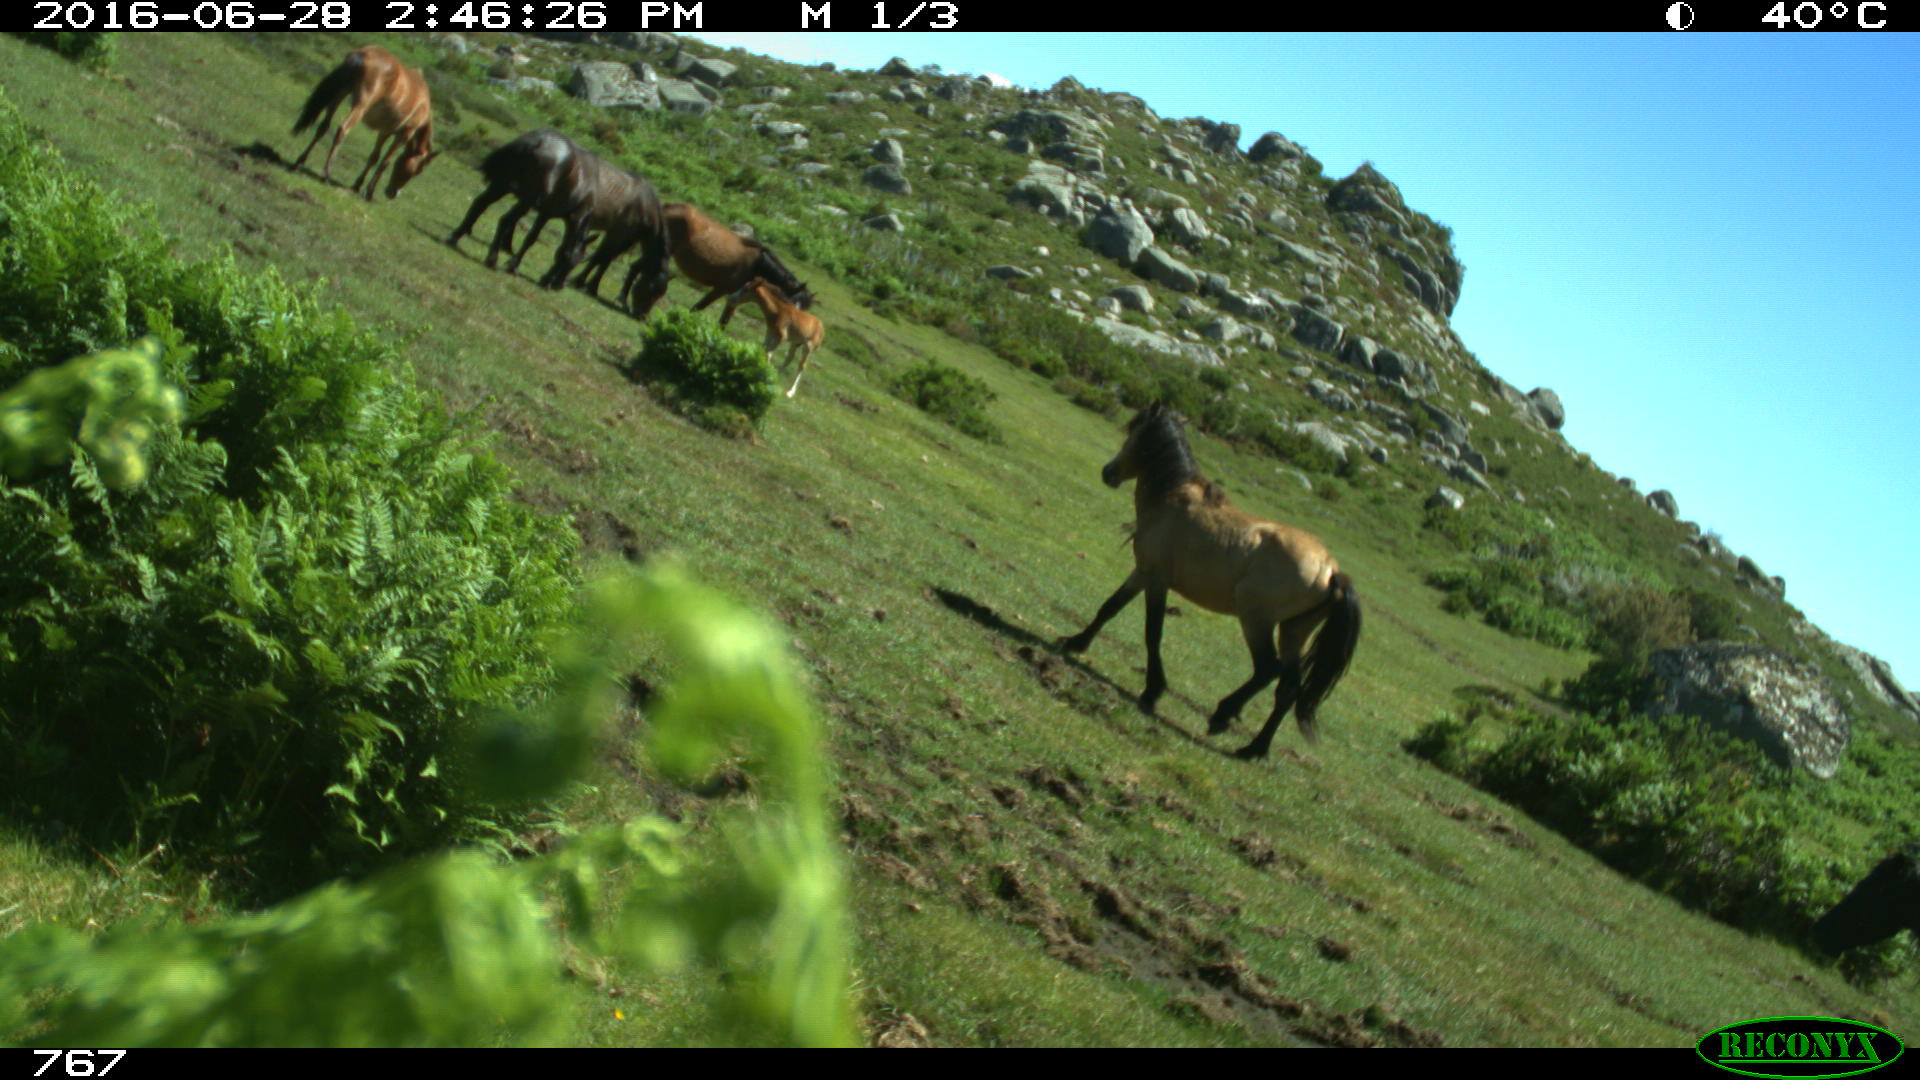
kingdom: Animalia
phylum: Chordata
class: Mammalia
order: Perissodactyla
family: Equidae
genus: Equus
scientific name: Equus caballus
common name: Horse
